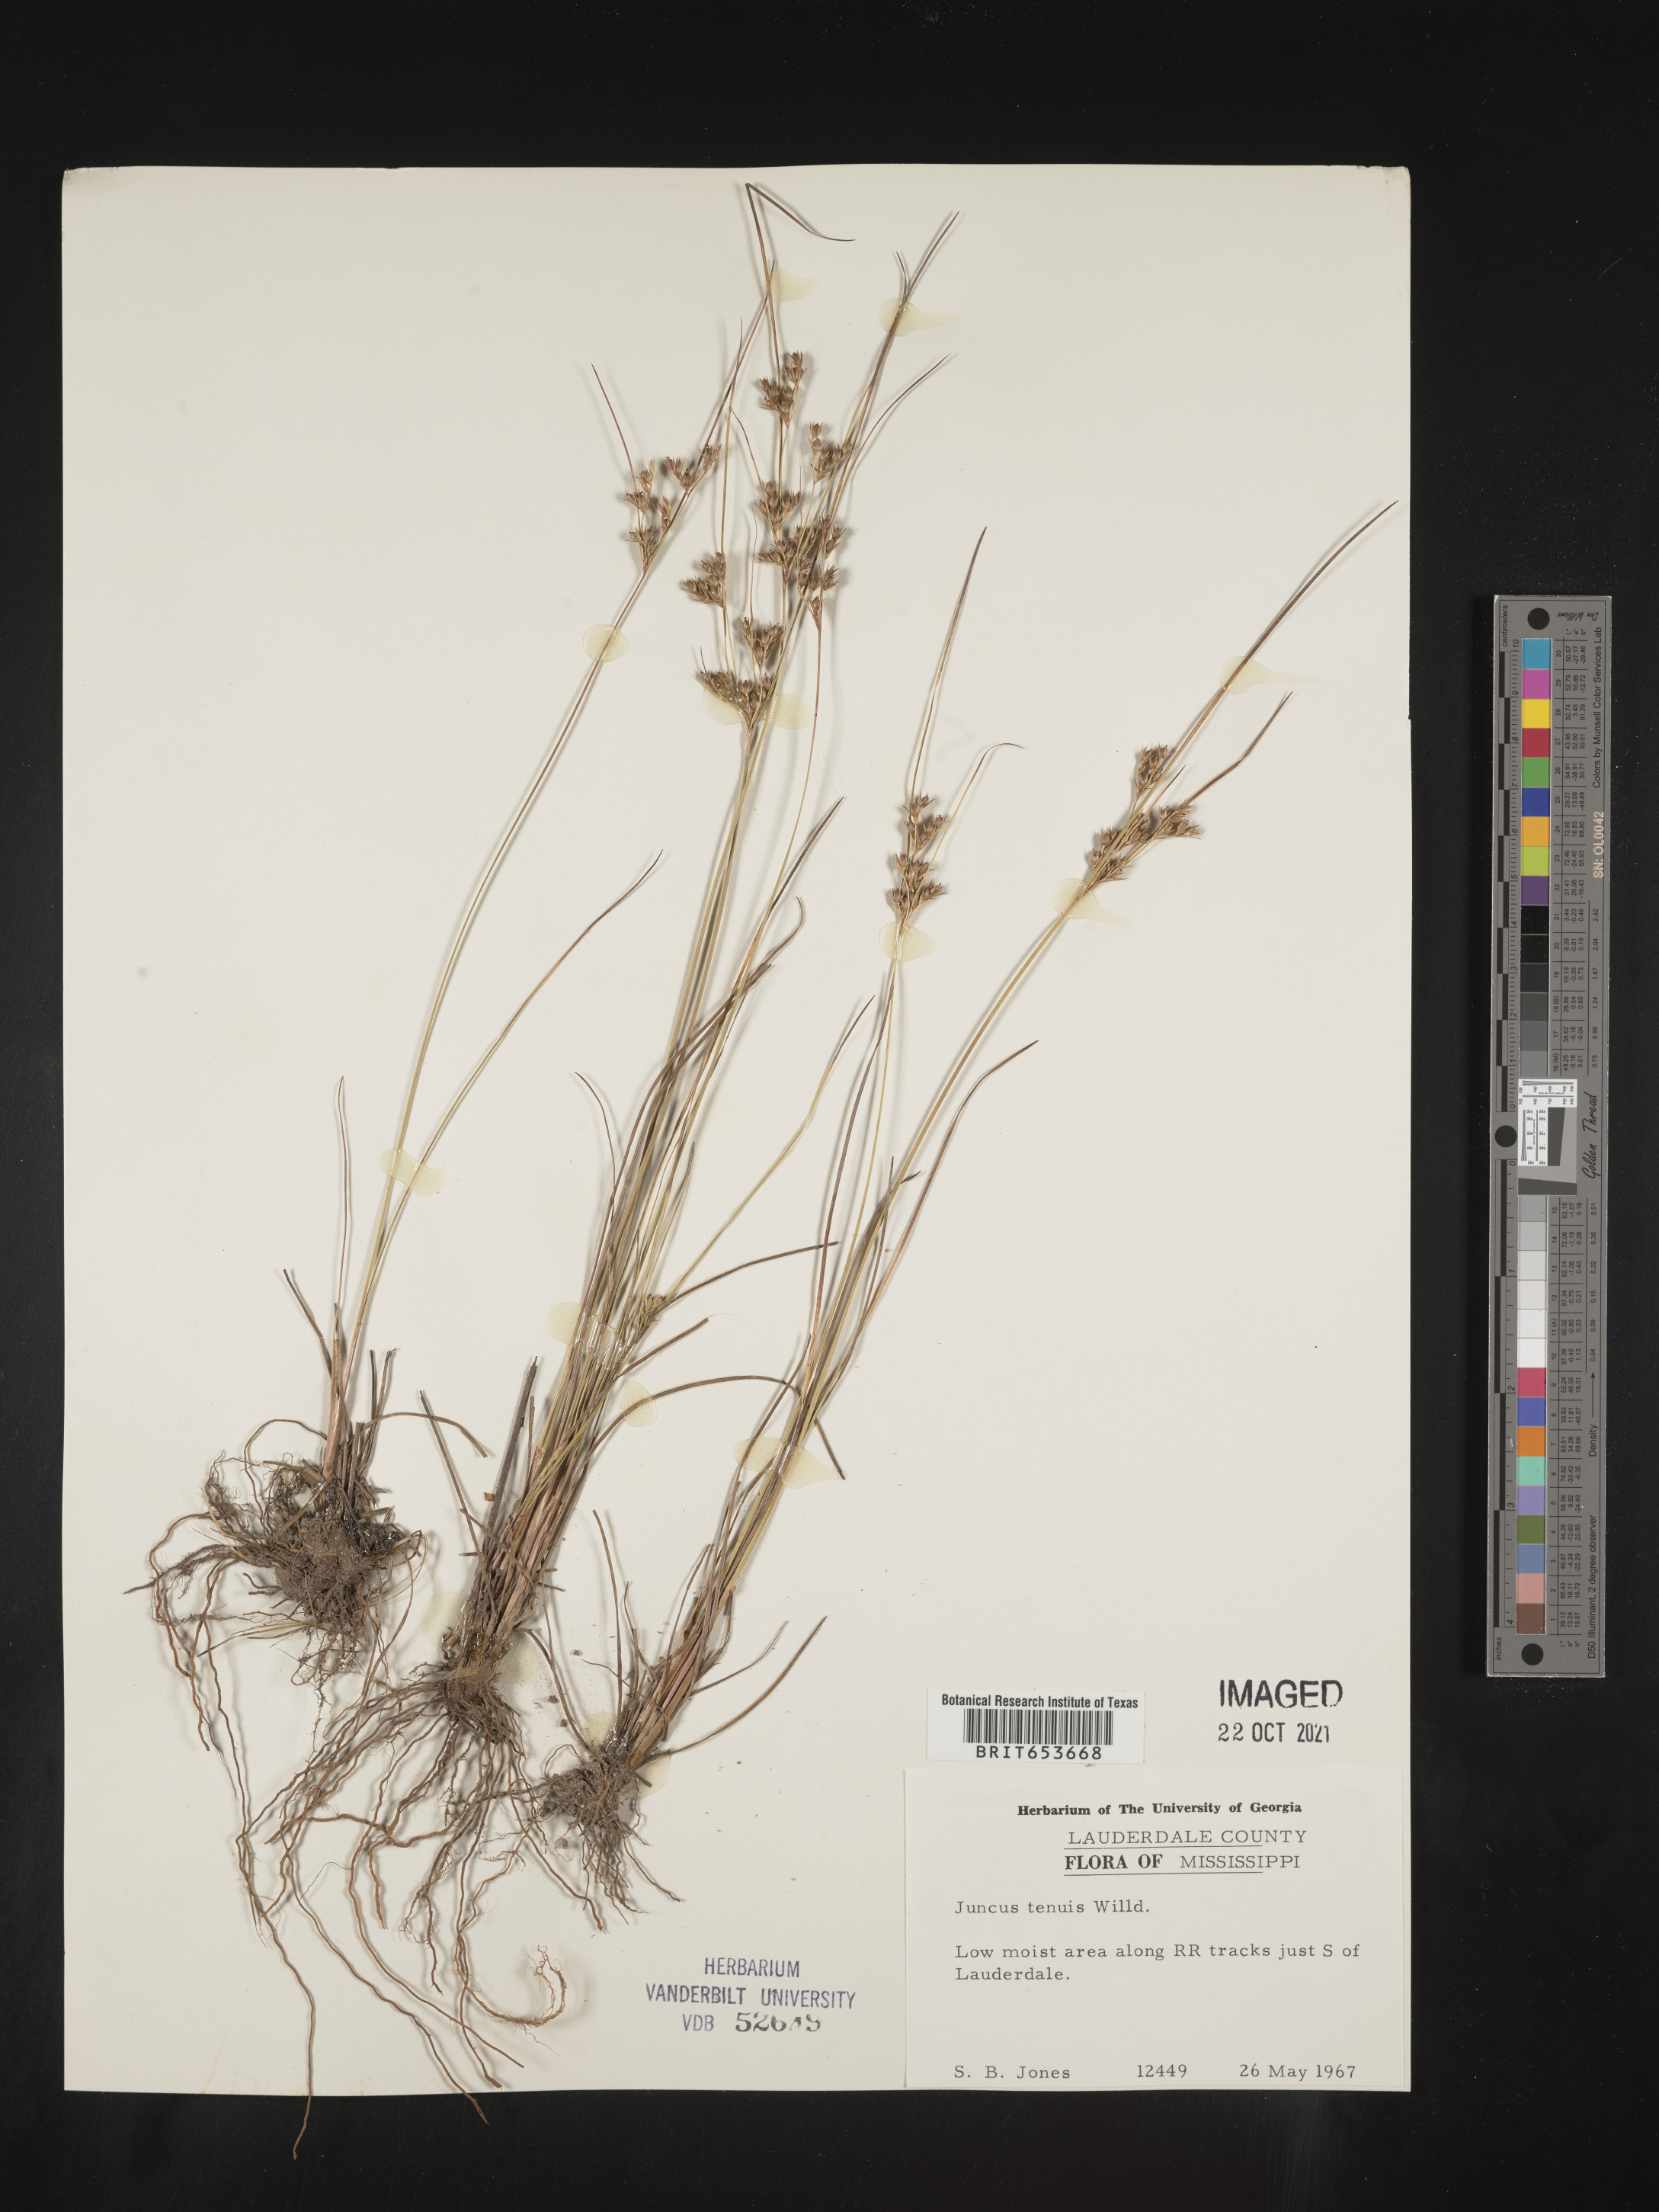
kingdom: Plantae
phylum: Tracheophyta
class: Liliopsida
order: Poales
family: Juncaceae
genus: Juncus
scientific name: Juncus tenuis
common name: Slender rush
